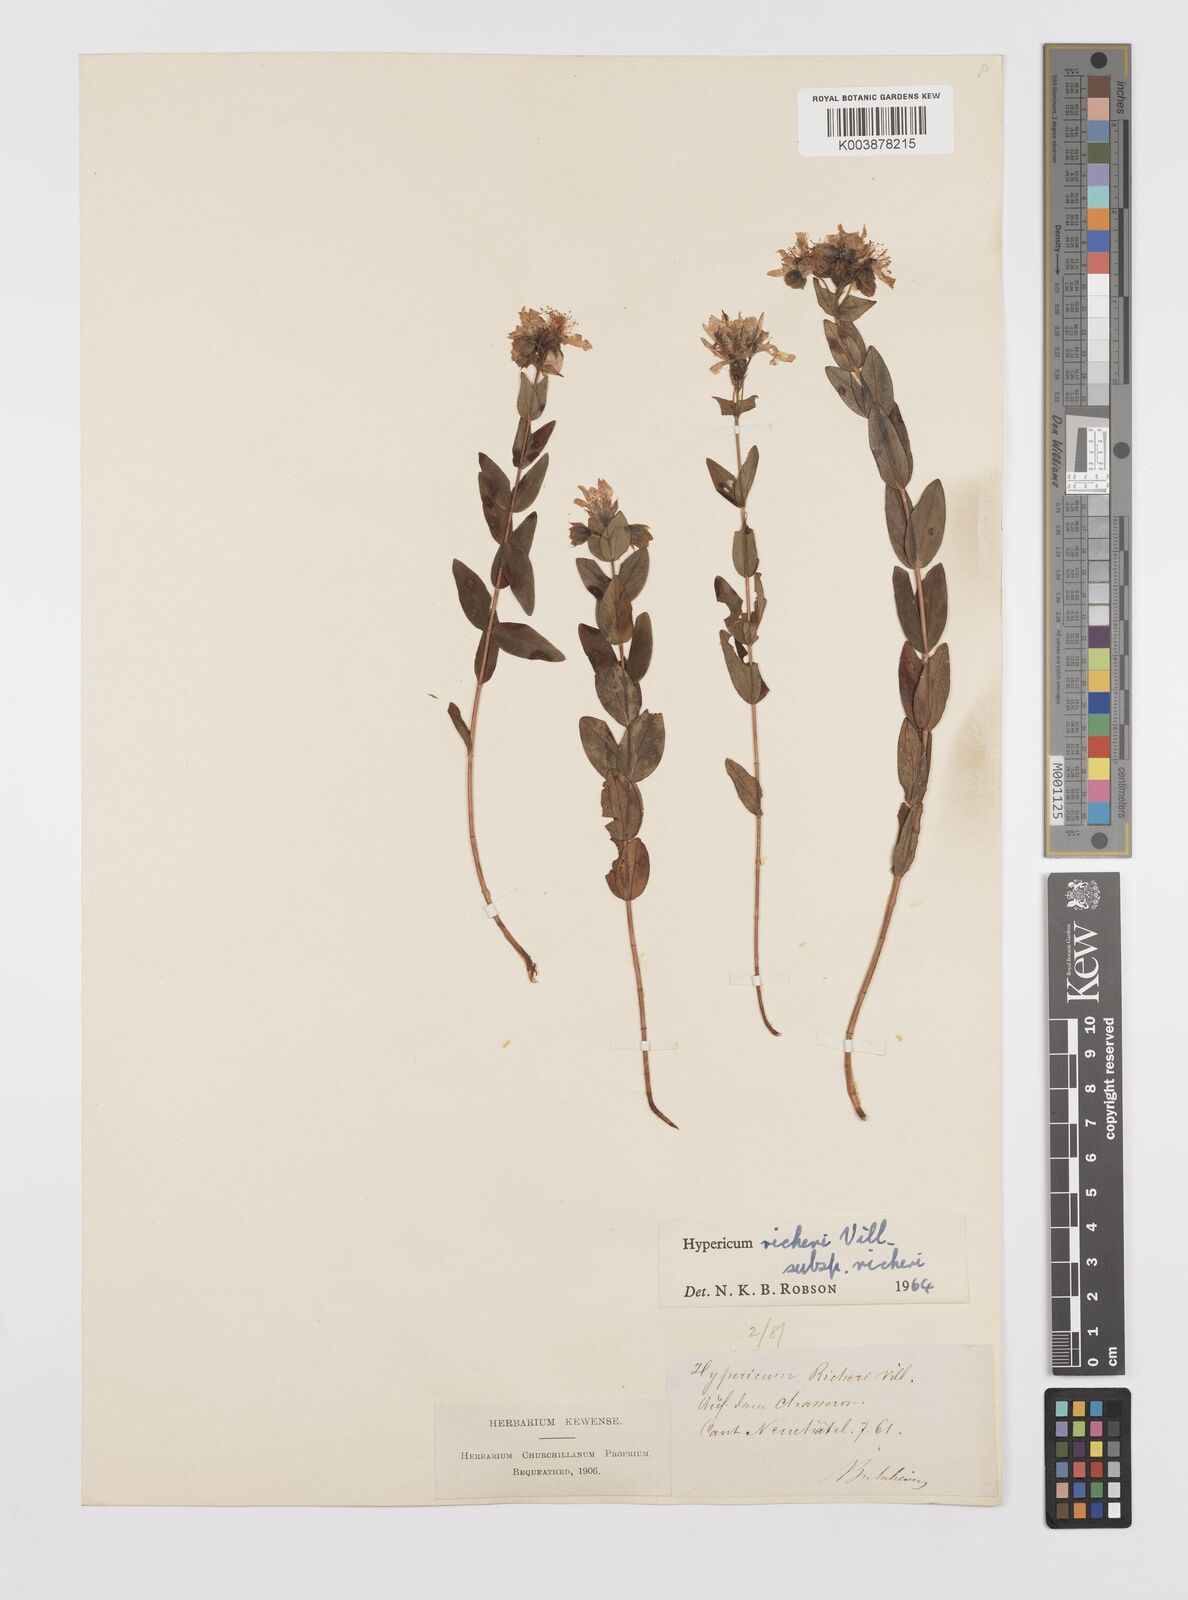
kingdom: Plantae
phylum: Tracheophyta
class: Magnoliopsida
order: Malpighiales
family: Hypericaceae
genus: Hypericum
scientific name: Hypericum richeri
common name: Alpine st john's-wort
